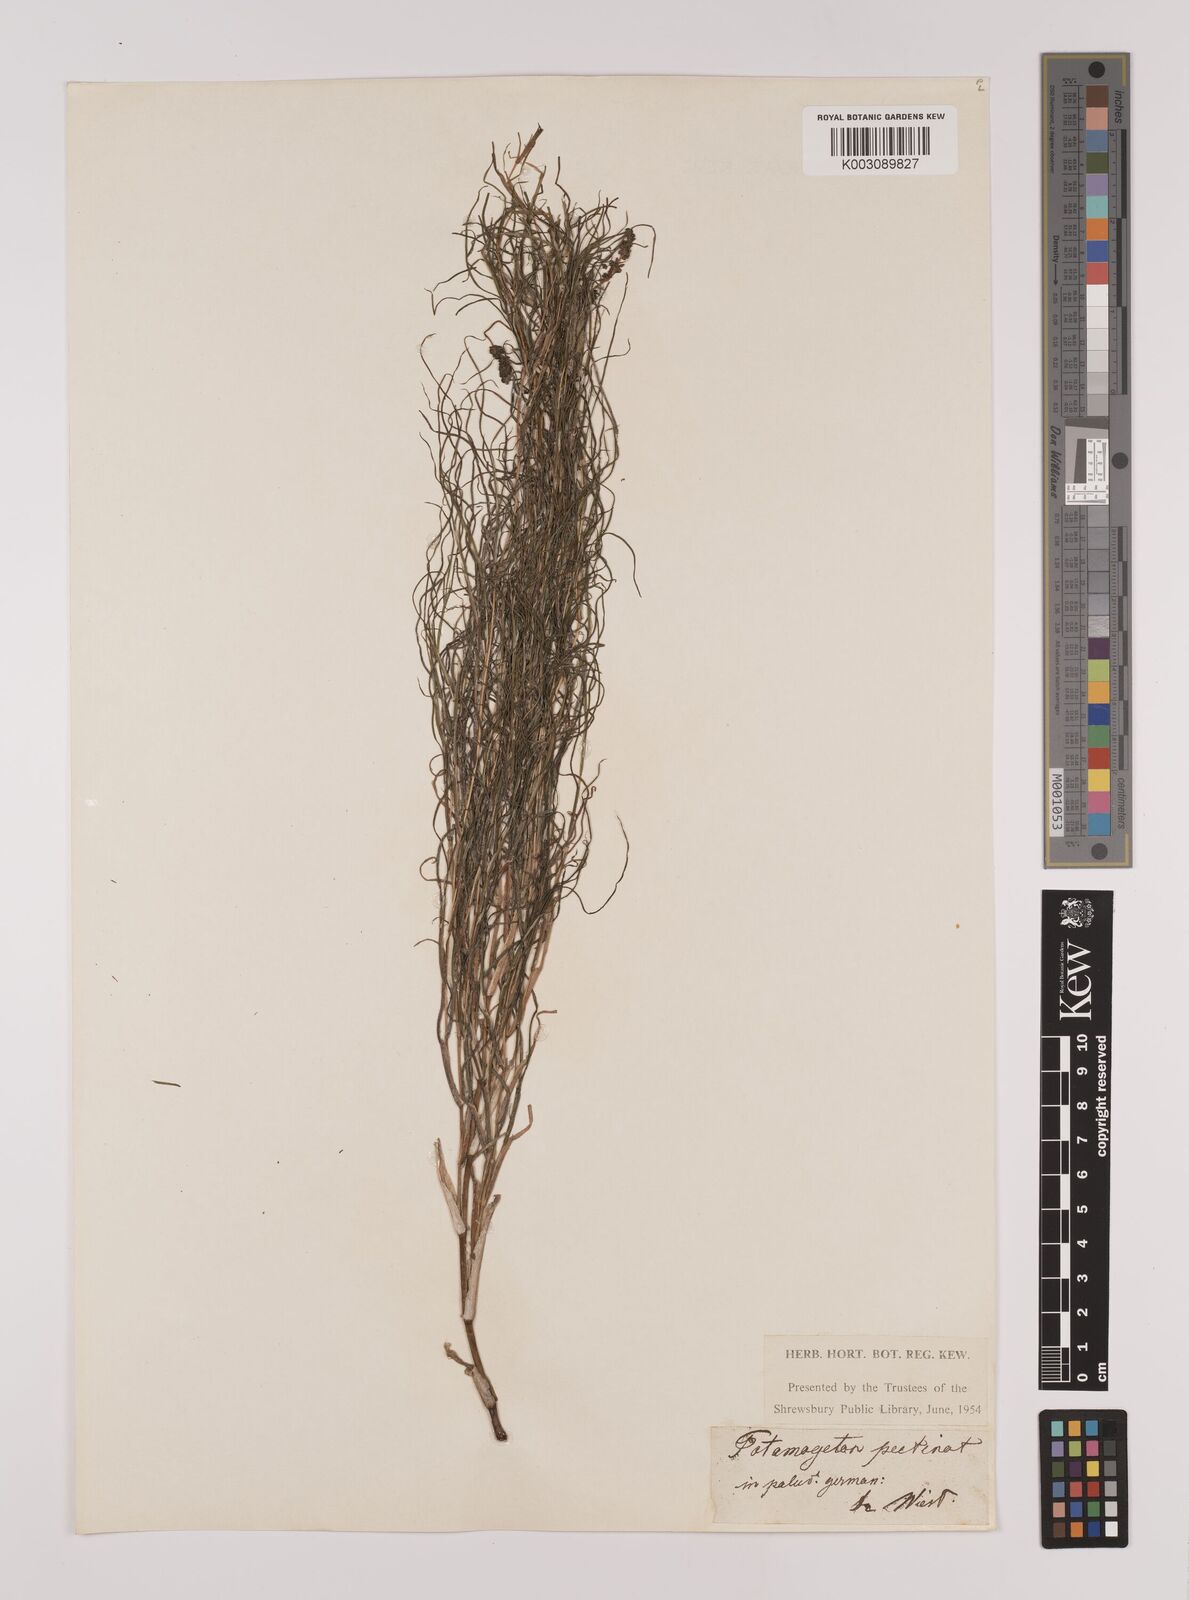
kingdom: Plantae
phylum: Tracheophyta
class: Liliopsida
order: Alismatales
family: Potamogetonaceae
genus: Stuckenia
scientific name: Stuckenia pectinata
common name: Sago pondweed
